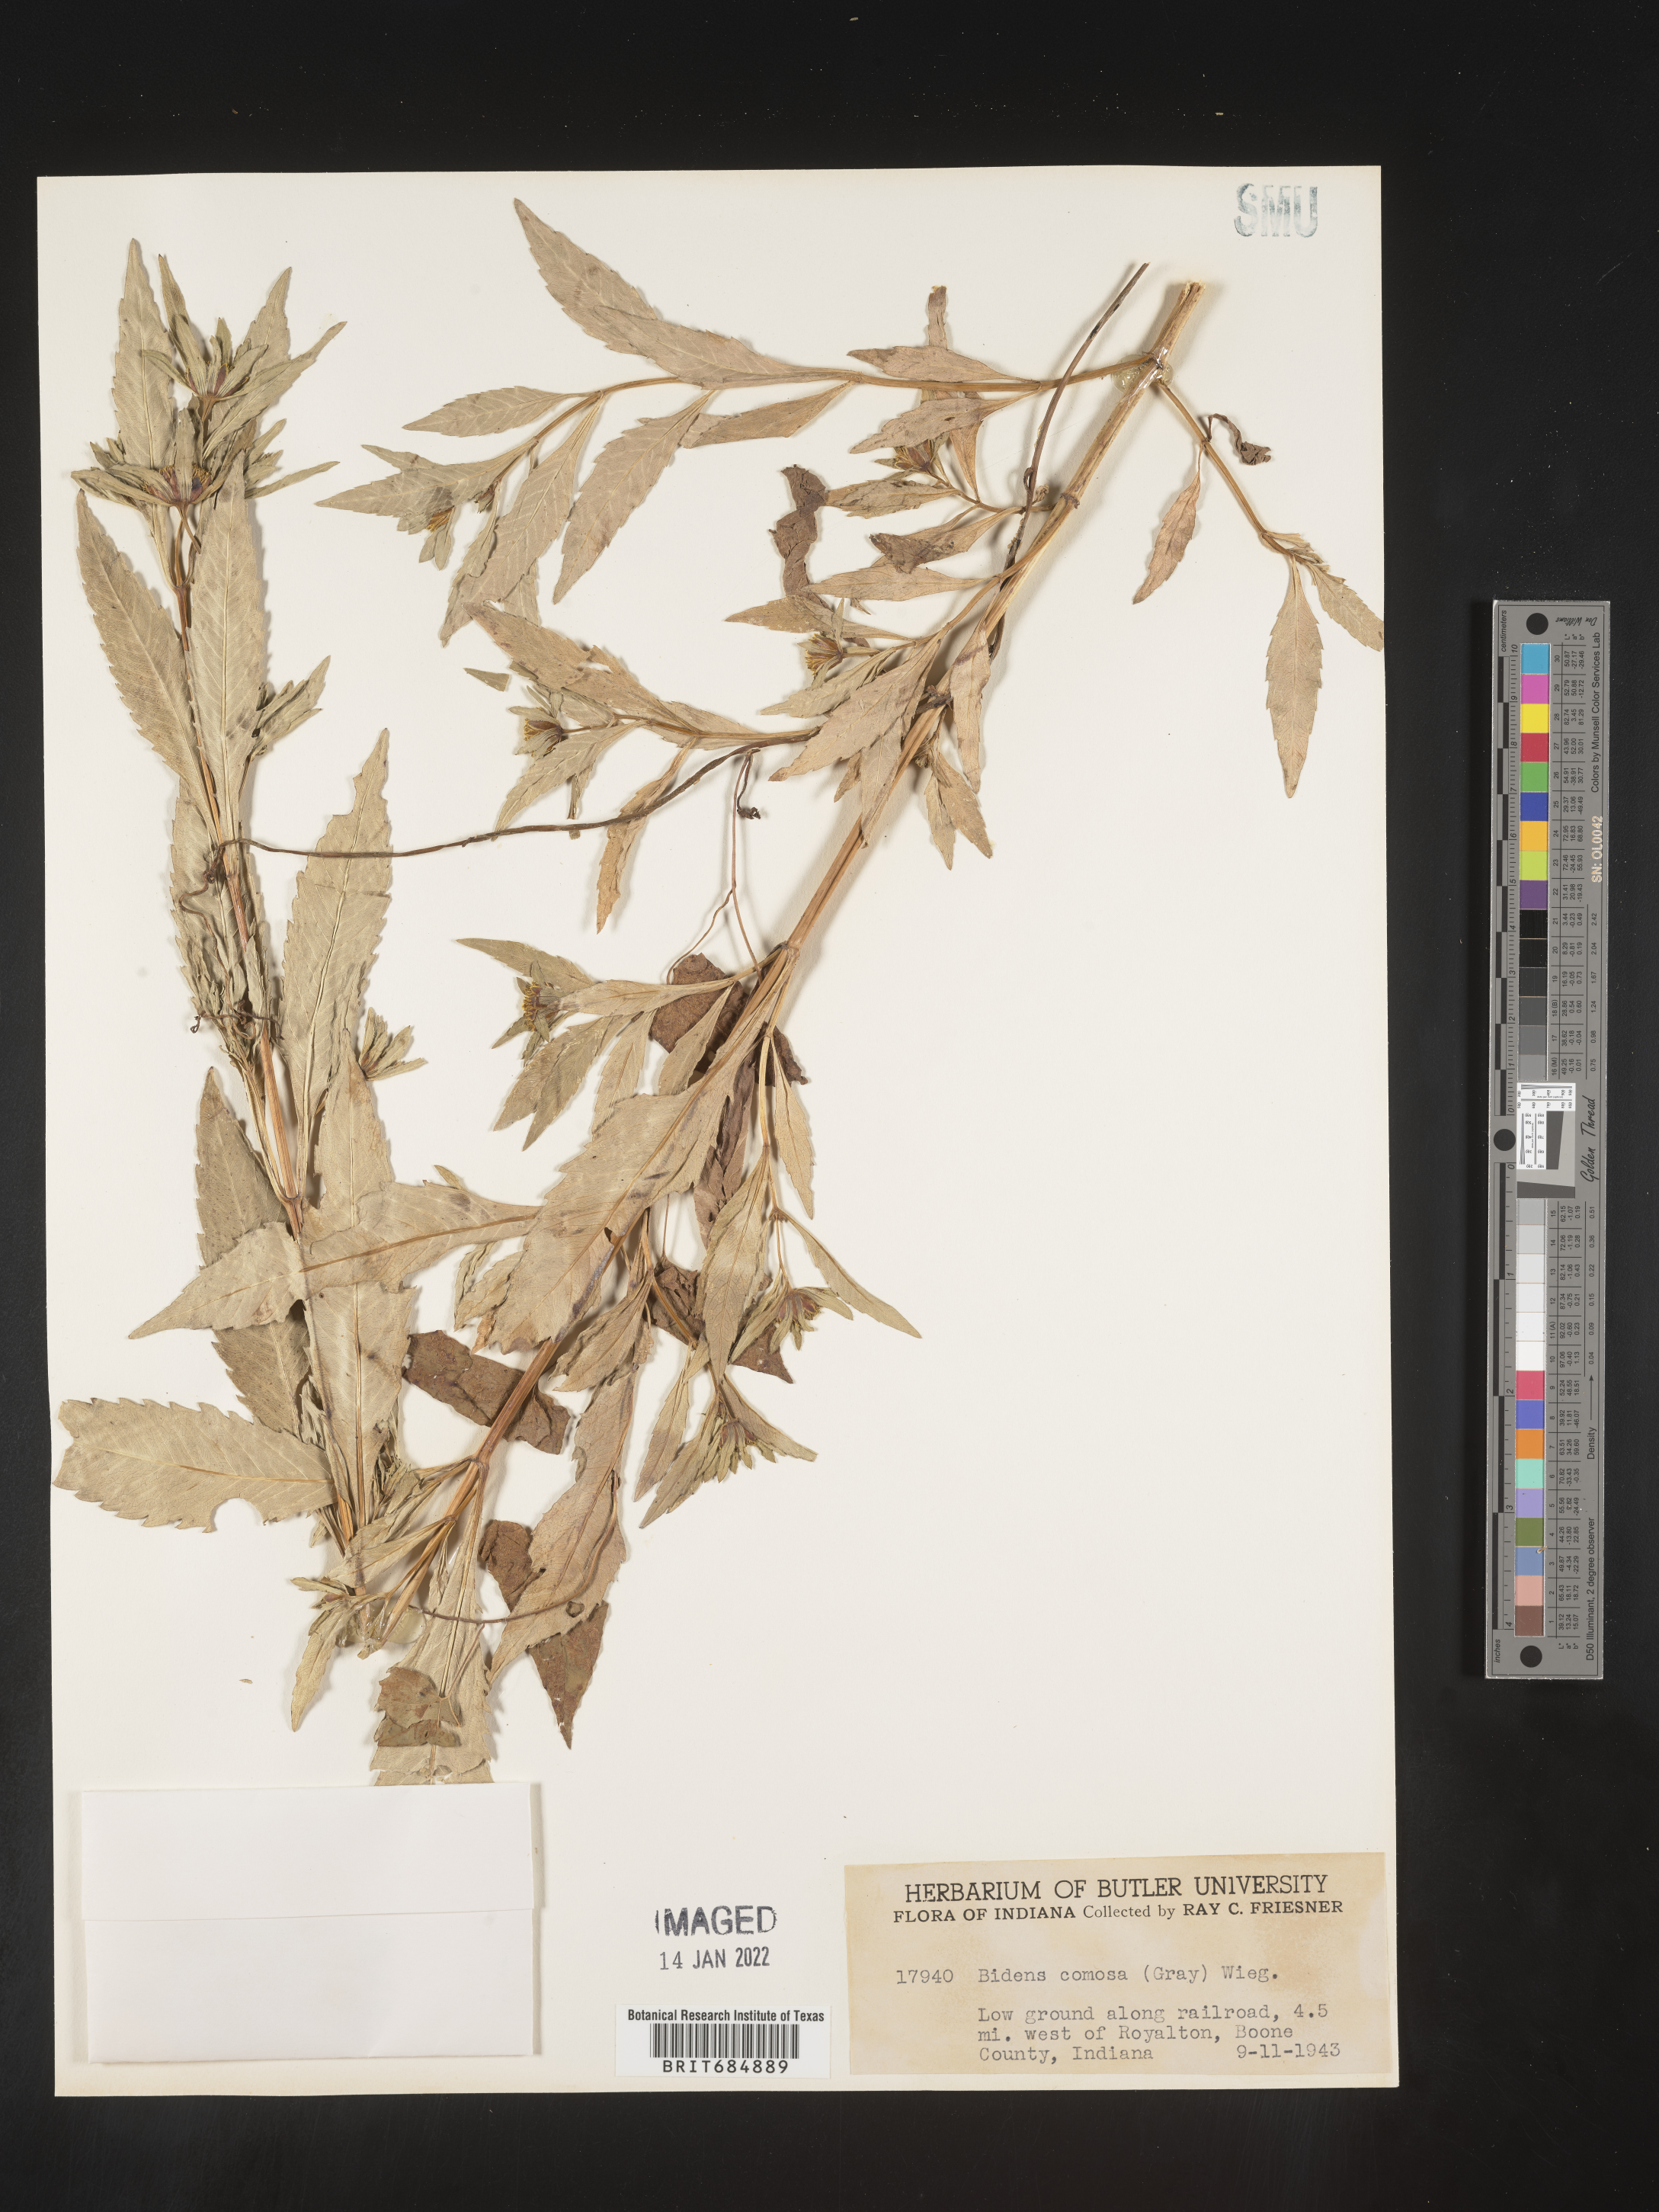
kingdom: Plantae
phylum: Tracheophyta
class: Magnoliopsida
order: Asterales
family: Asteraceae
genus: Bidens
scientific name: Bidens tripartita
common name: Trifid bur-marigold
